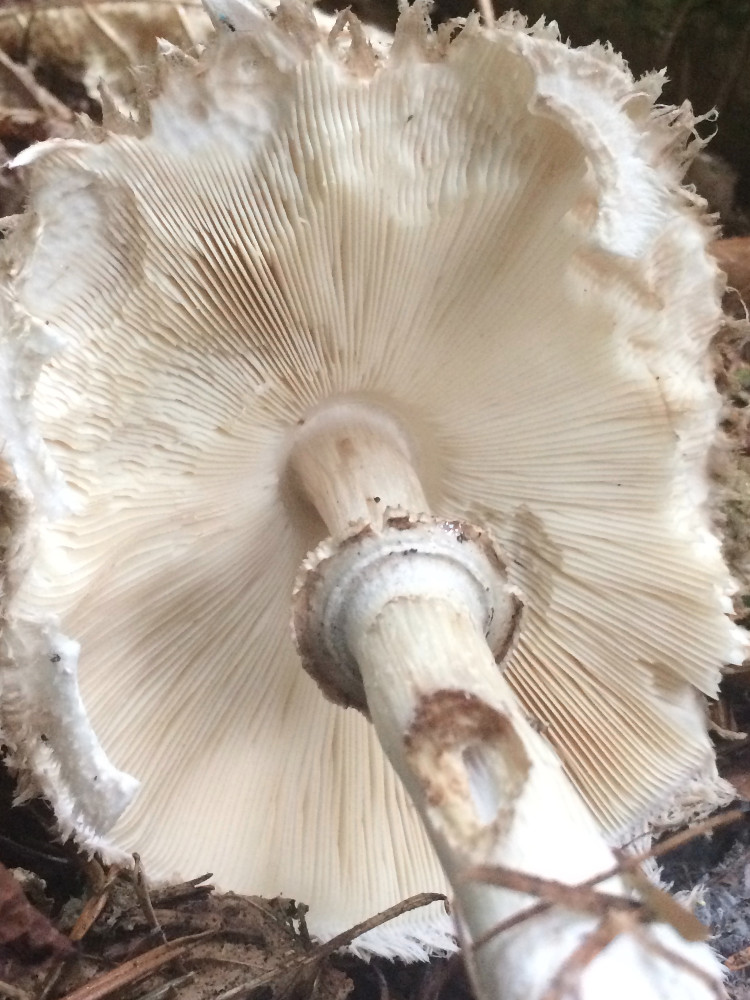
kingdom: Fungi
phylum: Basidiomycota
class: Agaricomycetes
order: Agaricales
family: Agaricaceae
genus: Chlorophyllum
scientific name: Chlorophyllum olivieri
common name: almindelig rabarberhat
